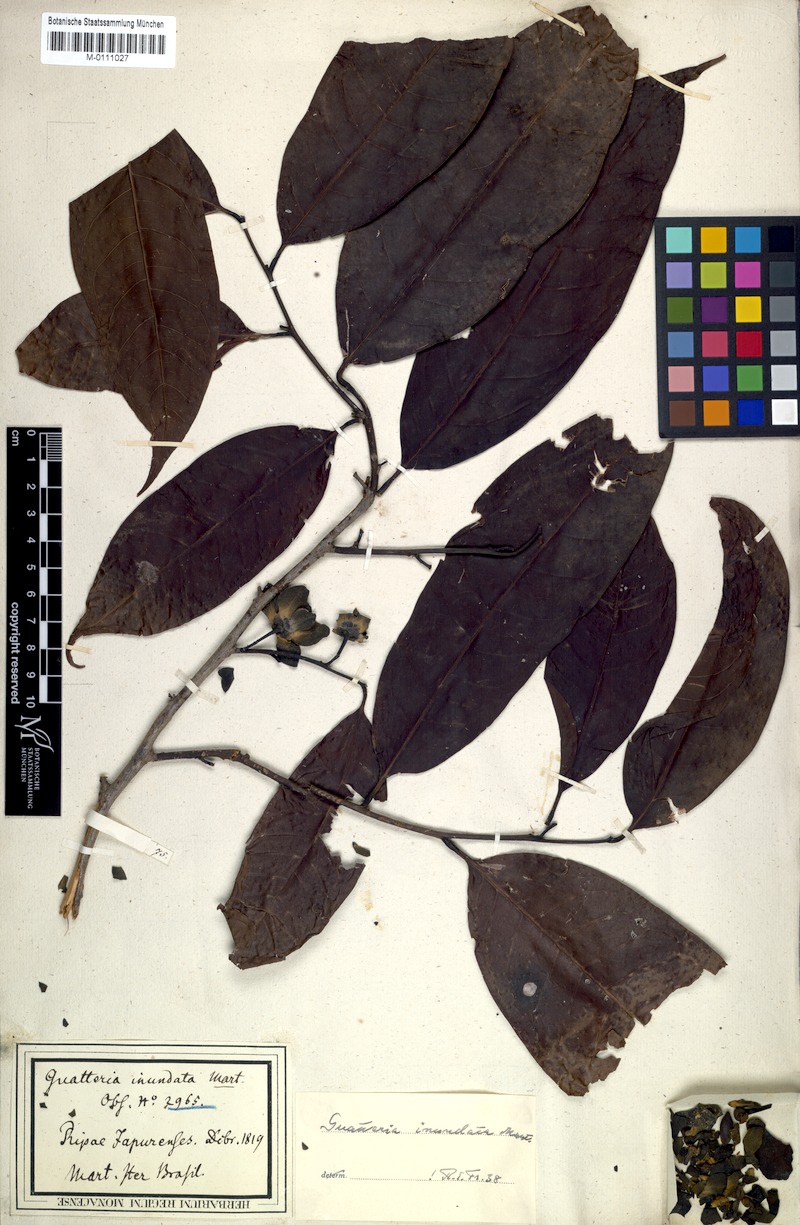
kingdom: Plantae
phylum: Tracheophyta
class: Magnoliopsida
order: Magnoliales
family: Annonaceae
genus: Guatteria
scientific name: Guatteria inundata
